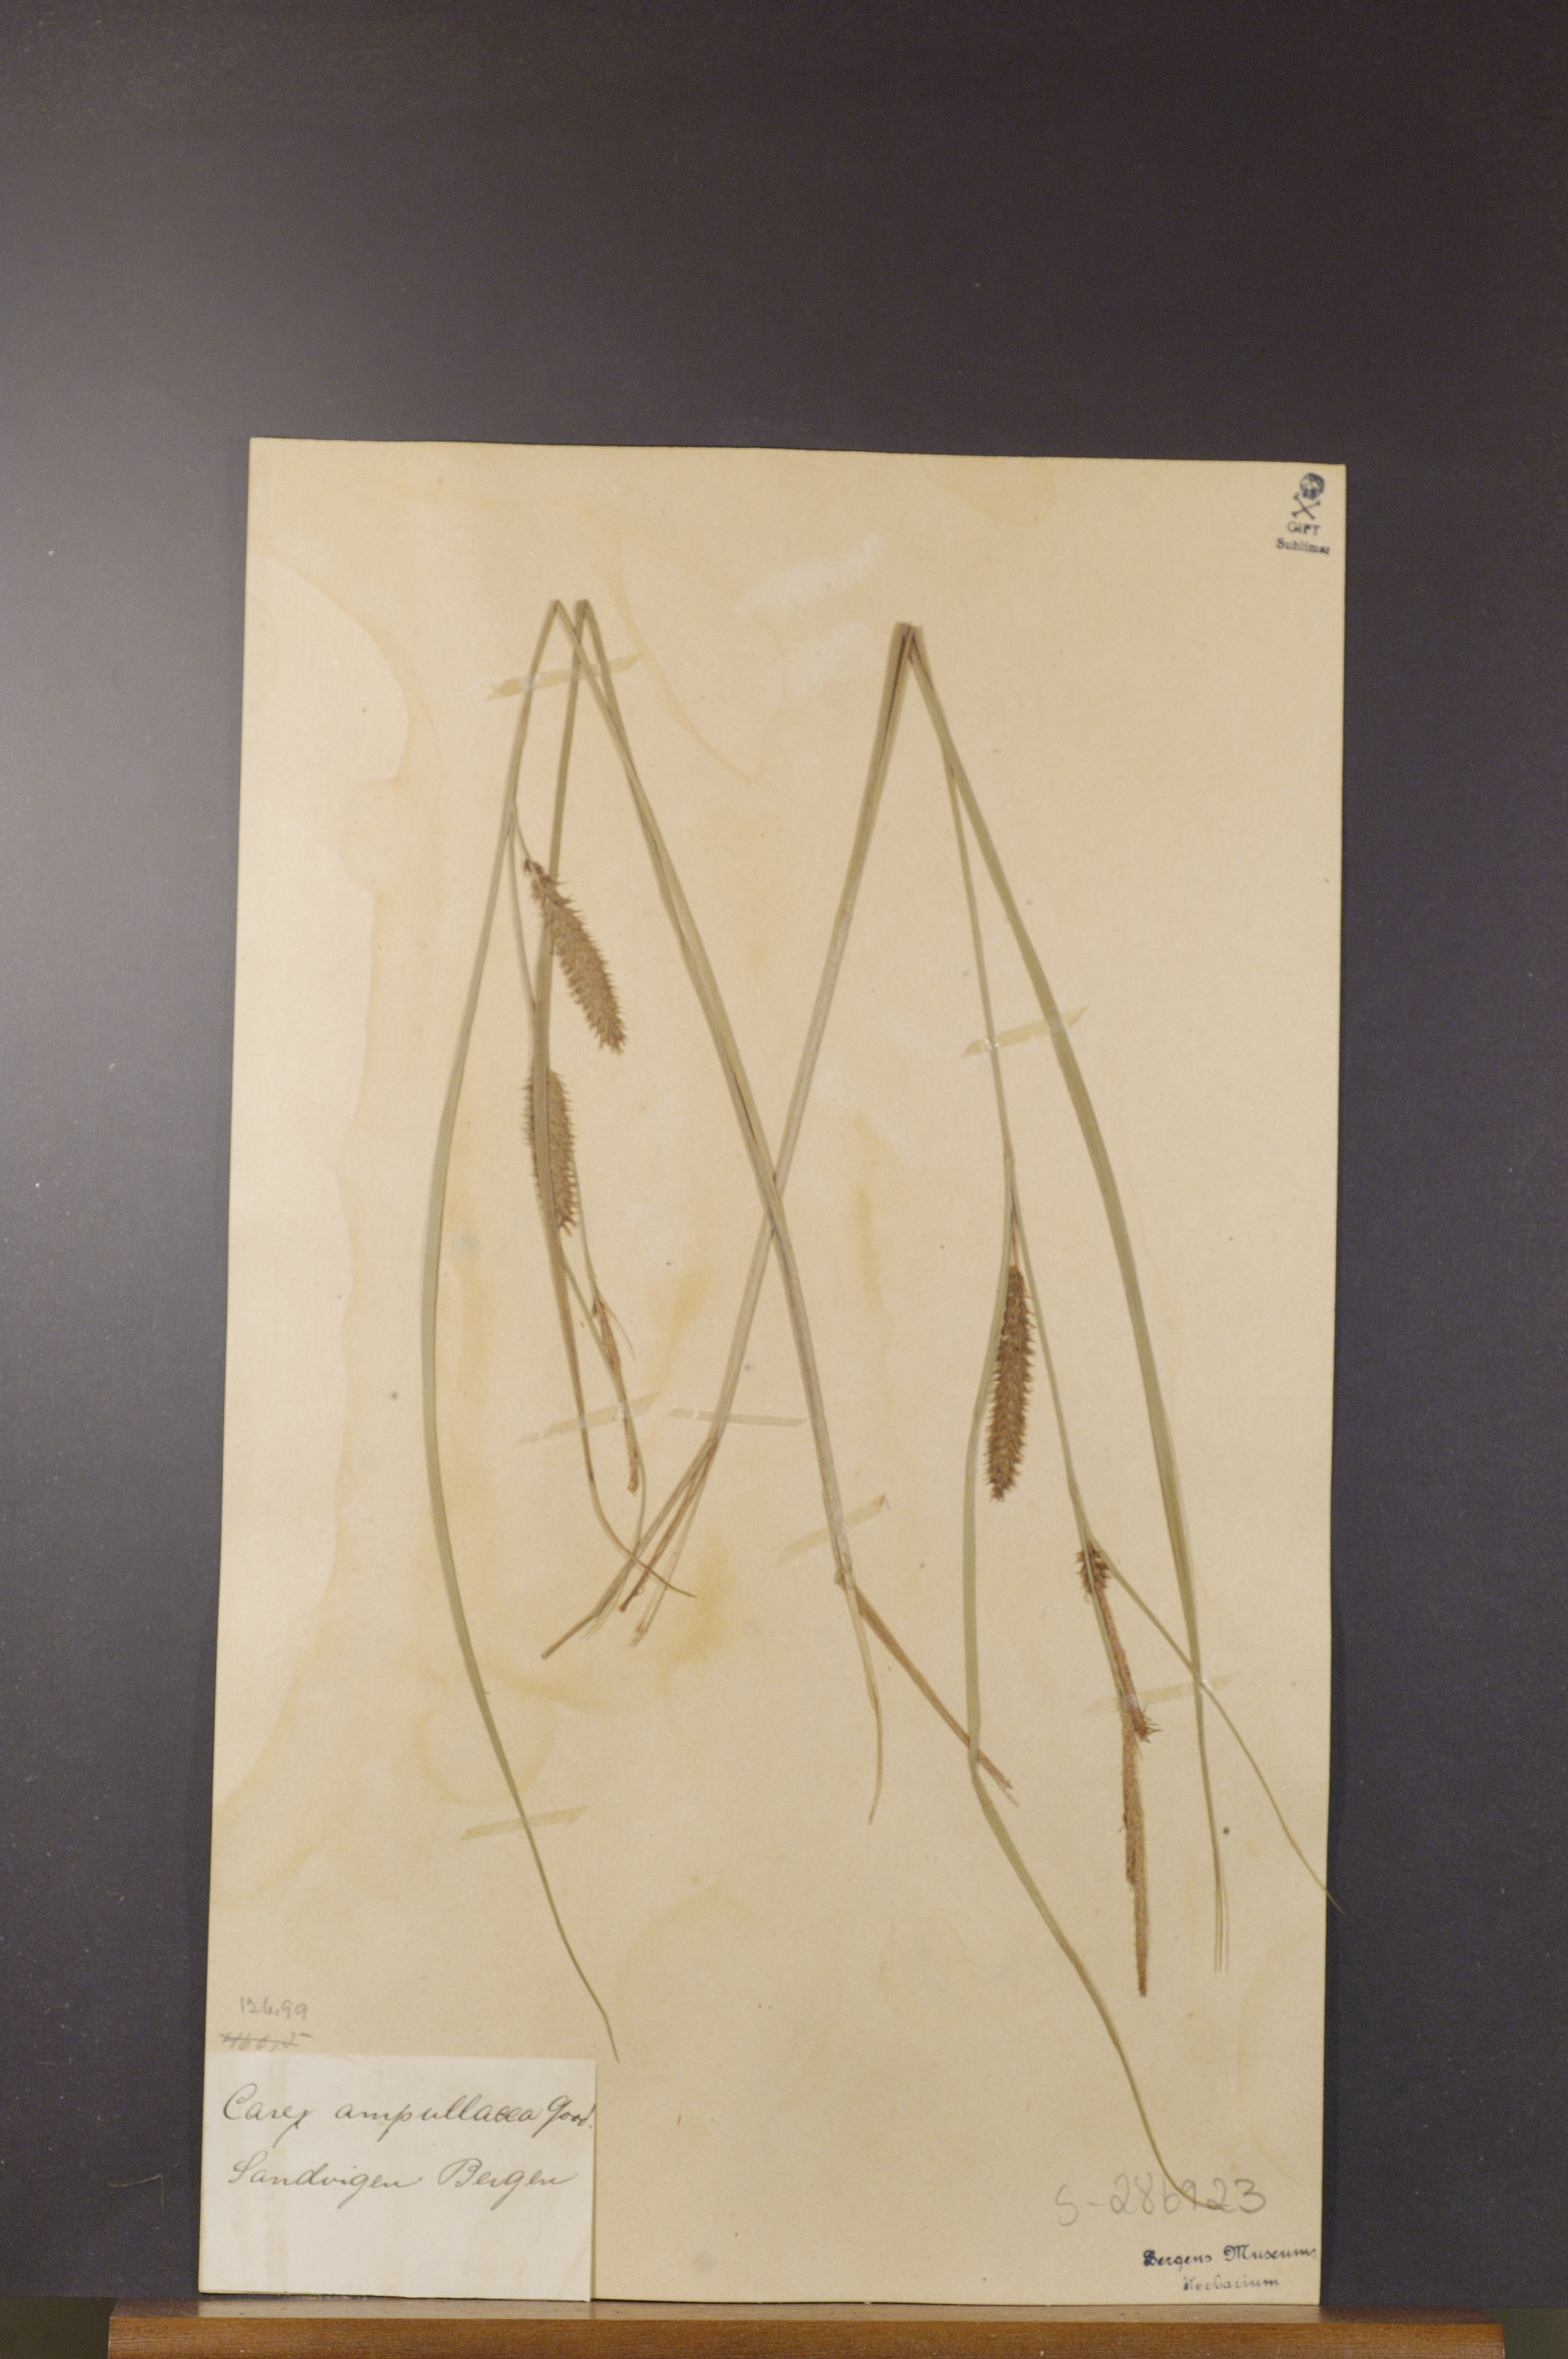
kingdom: Plantae
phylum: Tracheophyta
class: Liliopsida
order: Poales
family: Cyperaceae
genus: Carex
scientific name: Carex rostrata
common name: Bottle sedge
